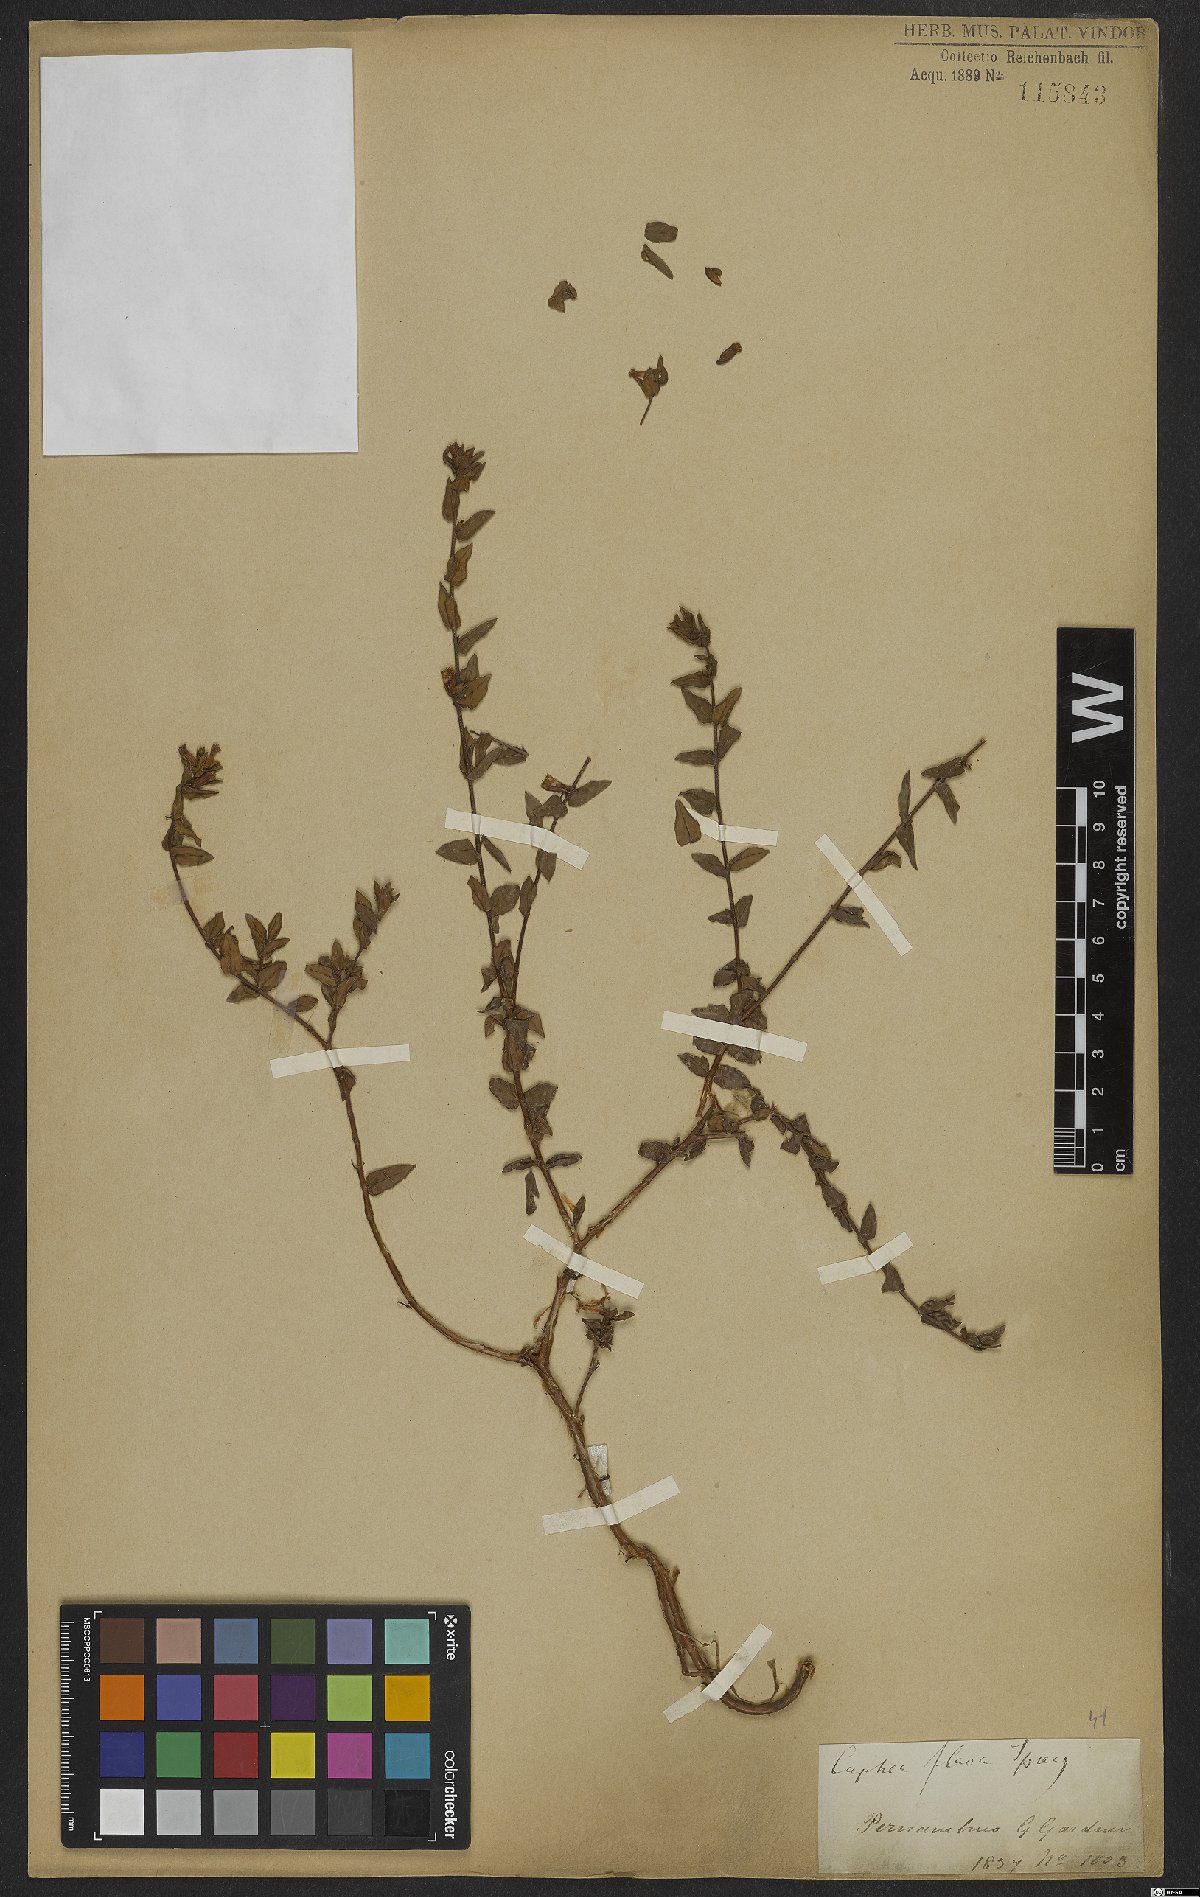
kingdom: Plantae
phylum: Tracheophyta
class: Magnoliopsida
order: Myrtales
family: Lythraceae
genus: Cuphea
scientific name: Cuphea flava
